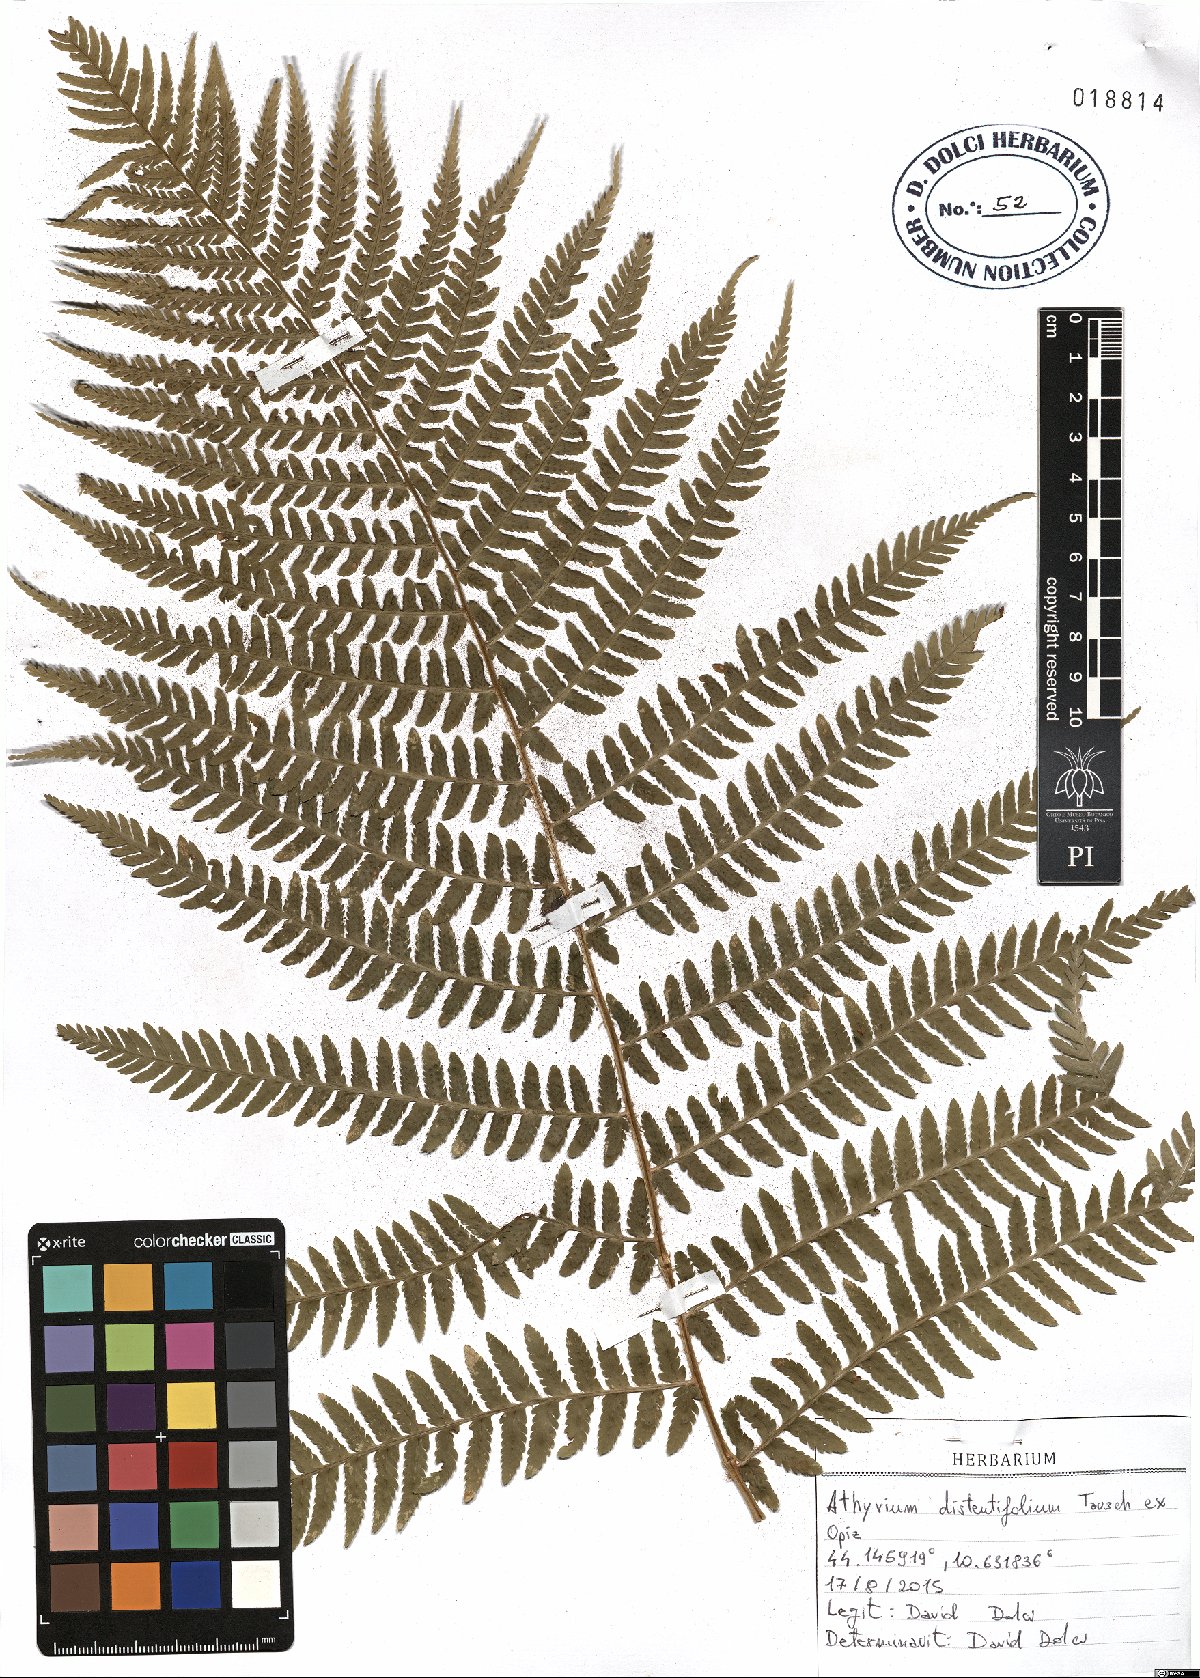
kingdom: Plantae
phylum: Tracheophyta
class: Polypodiopsida
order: Polypodiales
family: Athyriaceae
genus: Pseudathyrium
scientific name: Pseudathyrium alpestre
